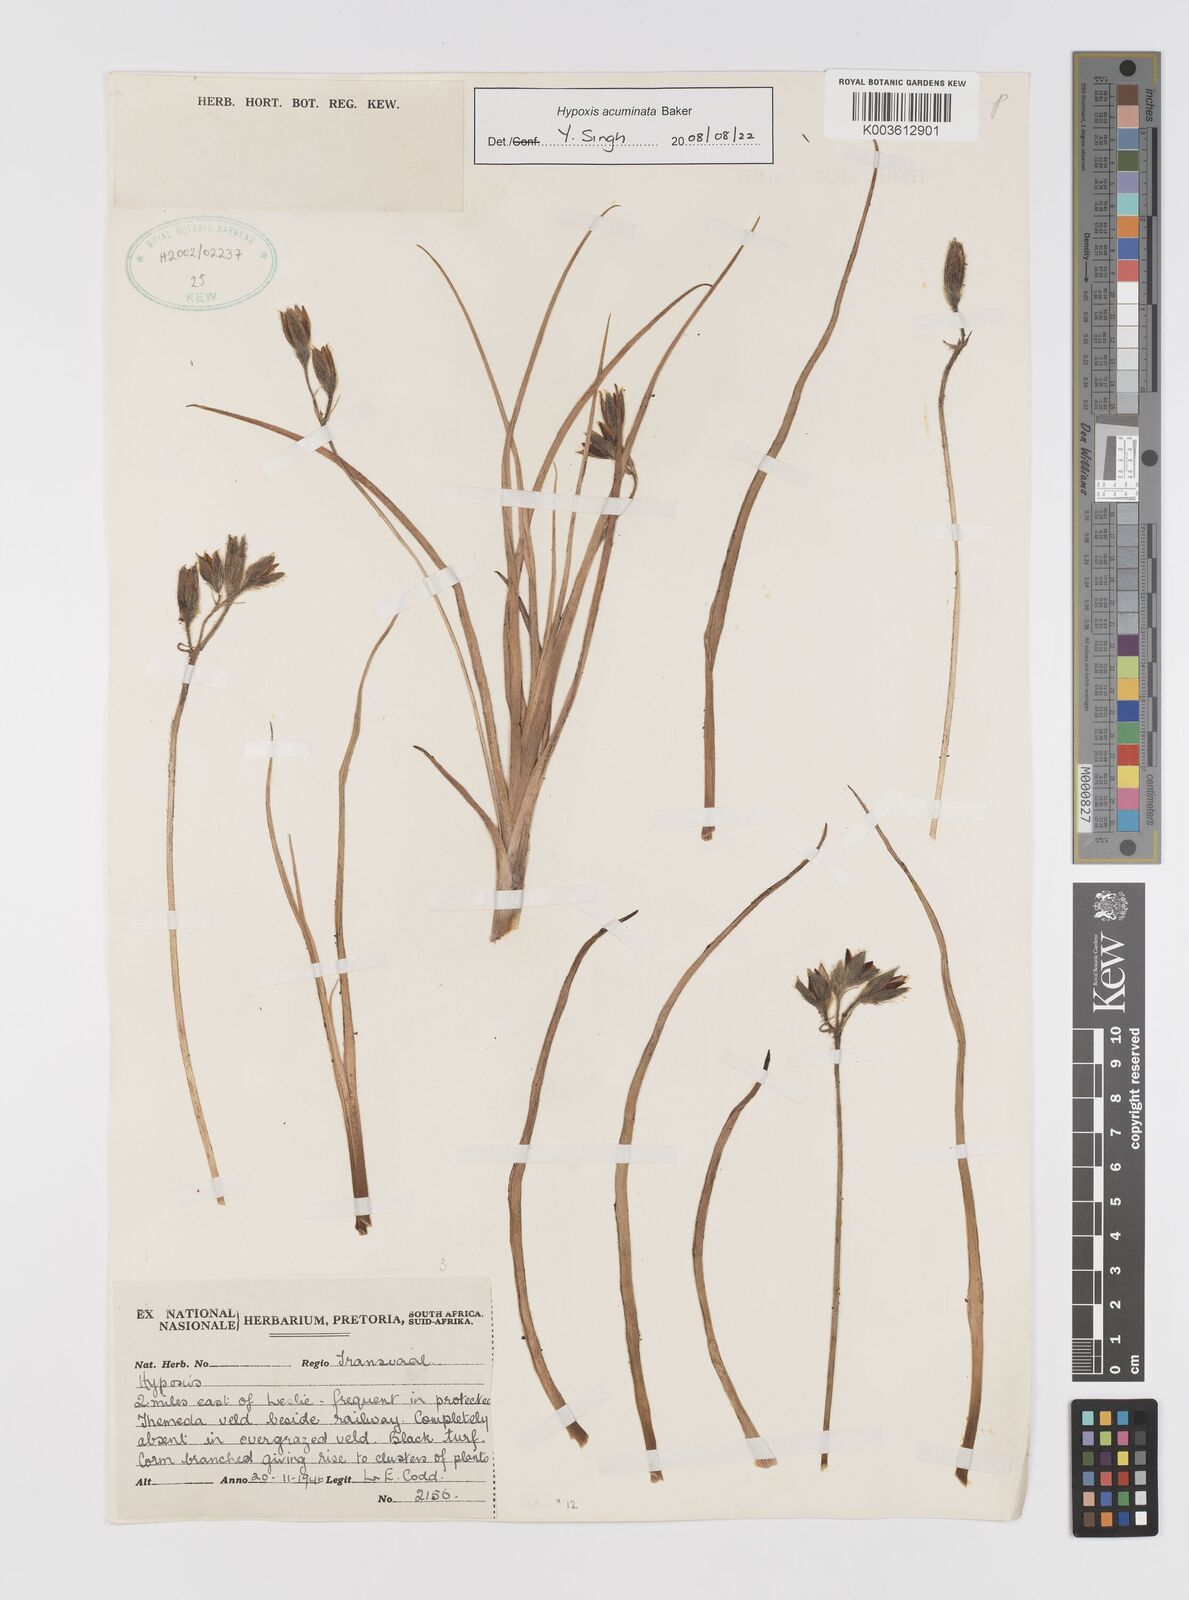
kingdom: Plantae
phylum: Tracheophyta
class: Liliopsida
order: Asparagales
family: Hypoxidaceae
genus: Hypoxis
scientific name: Hypoxis acuminata
